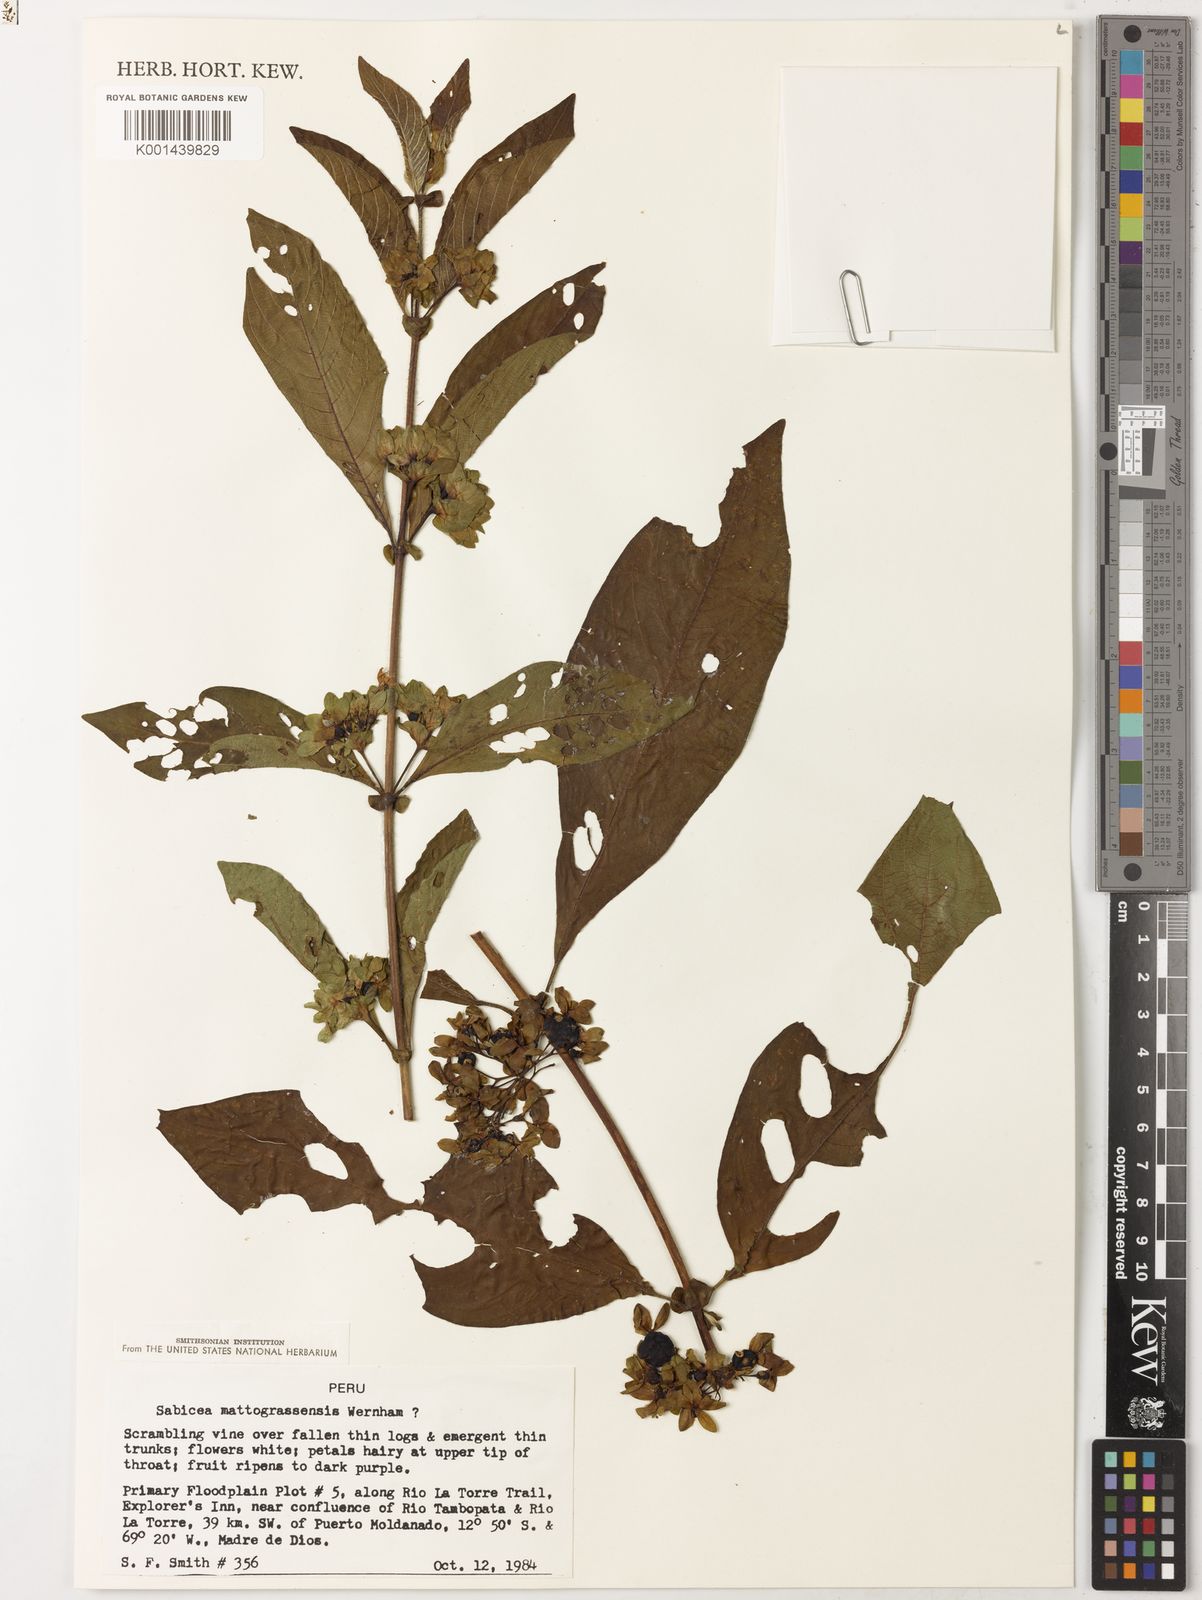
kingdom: Plantae
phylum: Tracheophyta
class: Magnoliopsida
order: Gentianales
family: Rubiaceae
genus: Sabicea
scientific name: Sabicea mattogrossensis
